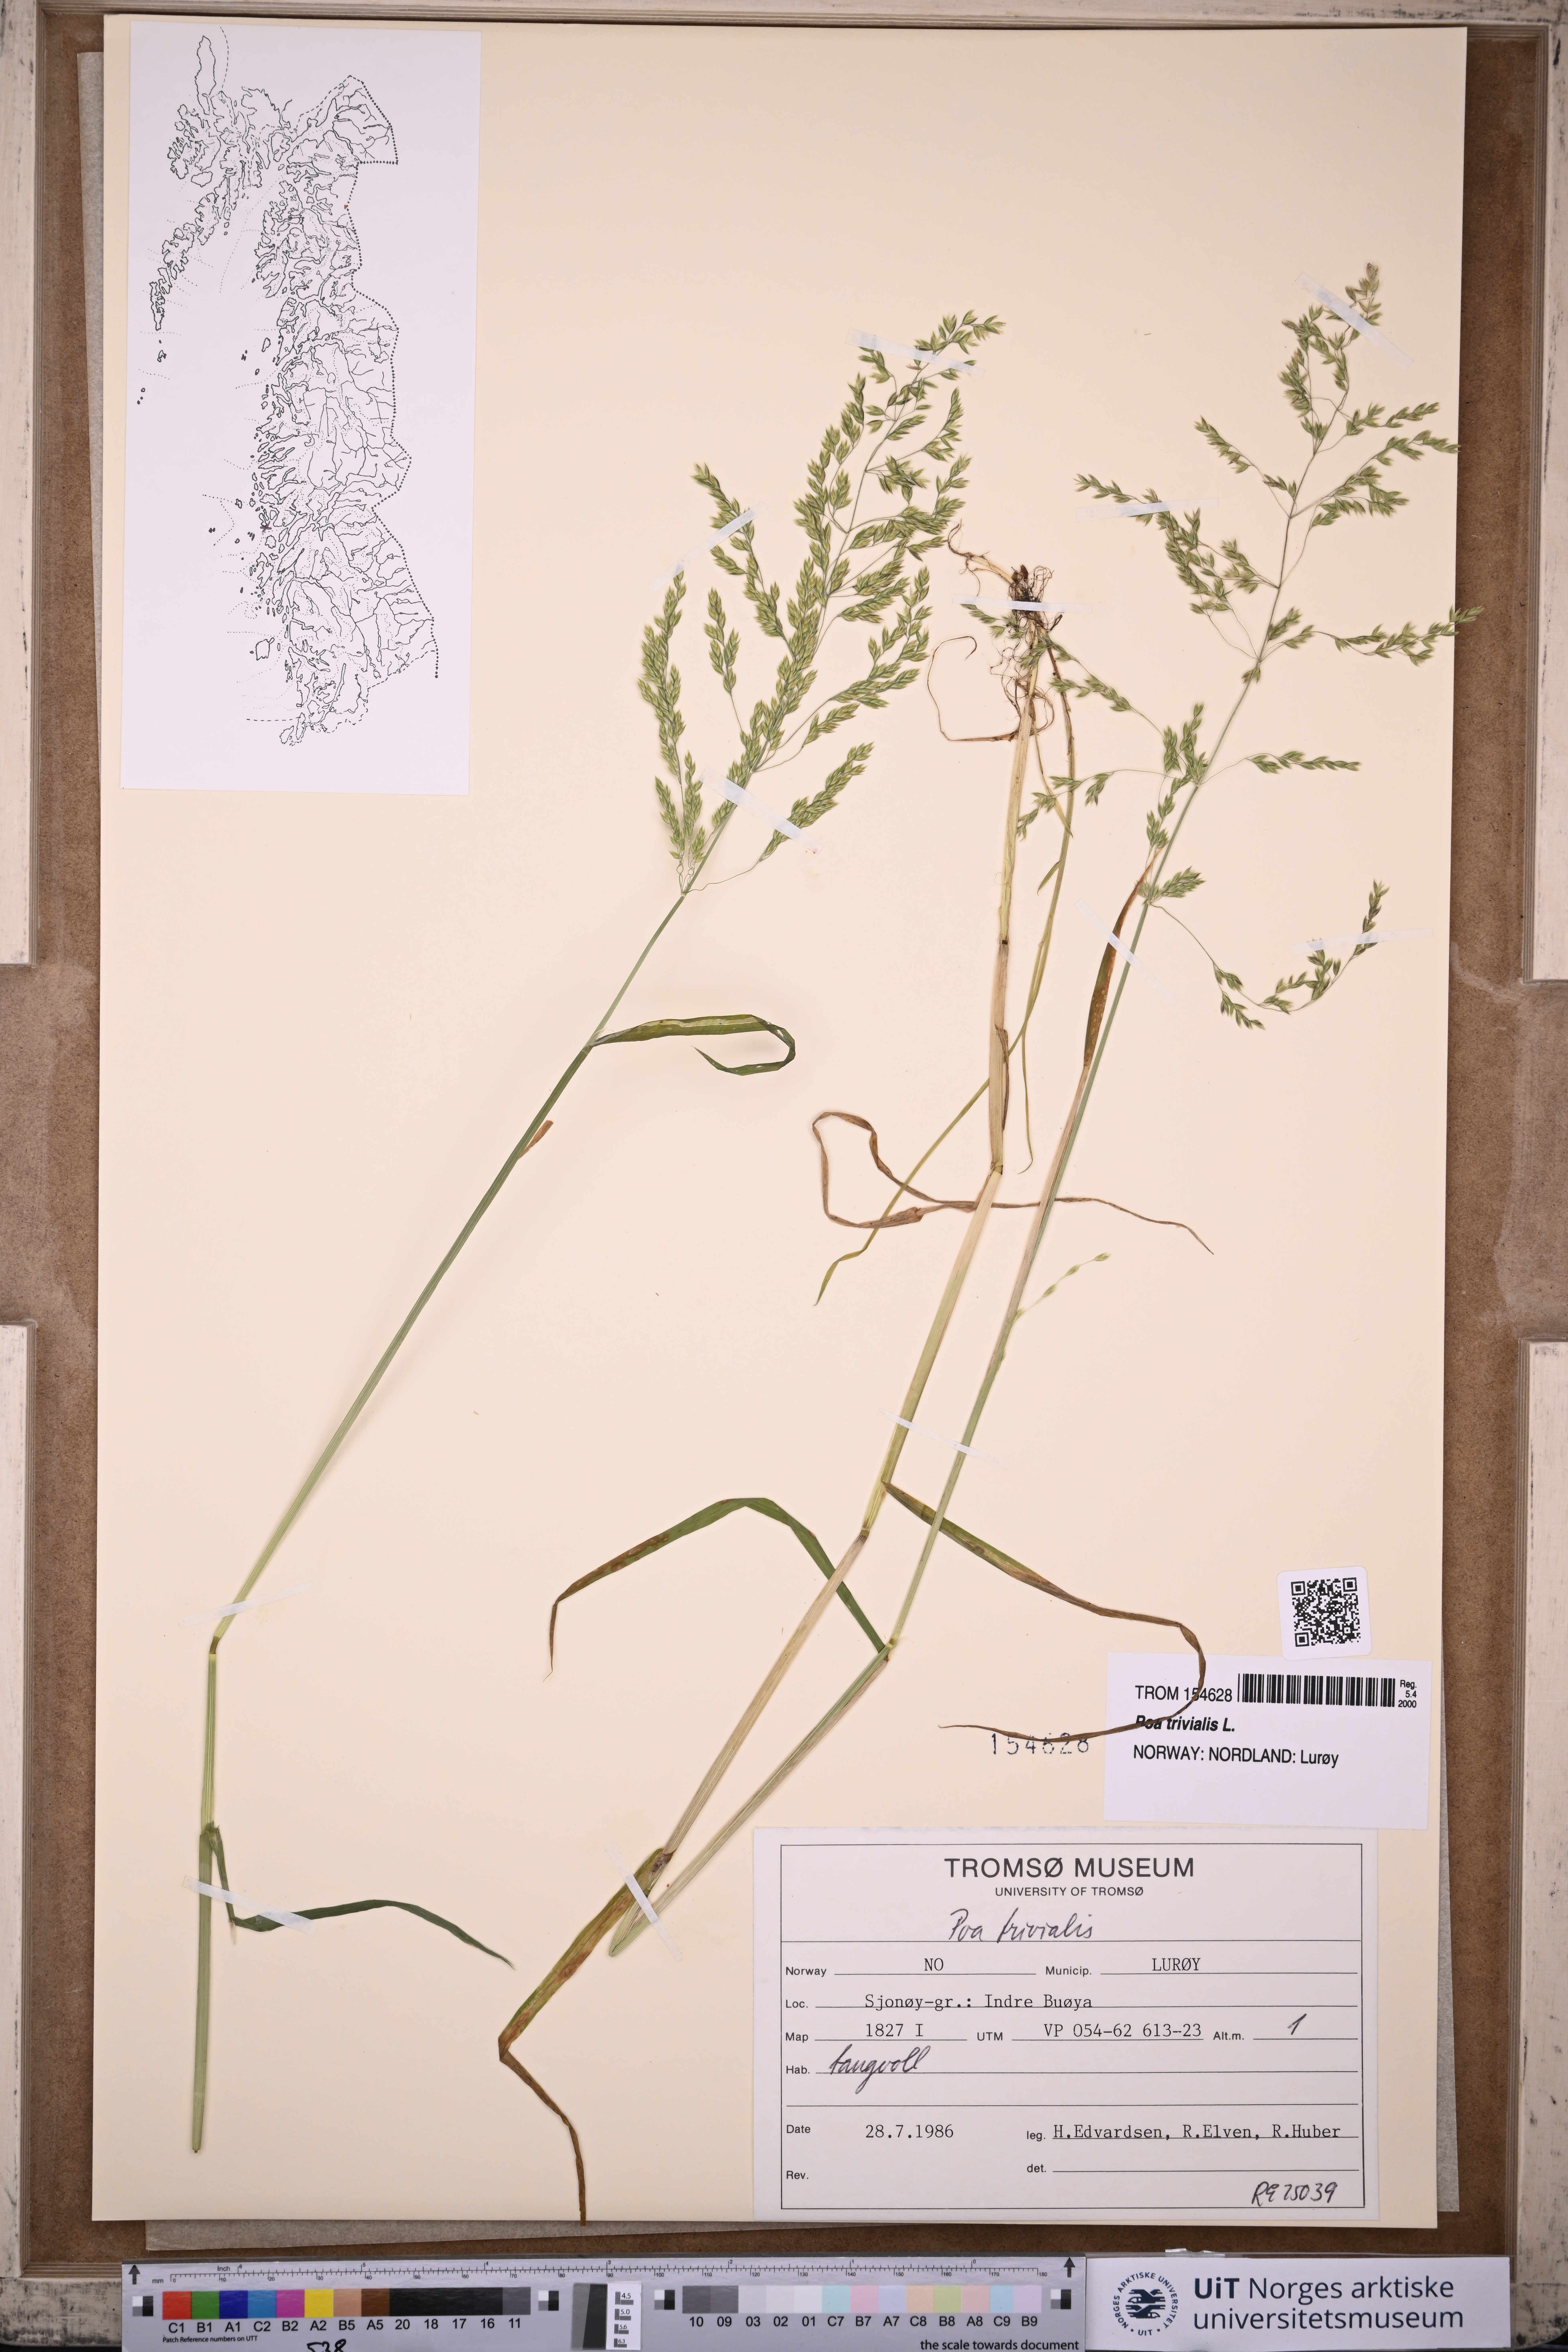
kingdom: Plantae
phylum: Tracheophyta
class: Liliopsida
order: Poales
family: Poaceae
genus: Poa
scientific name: Poa trivialis
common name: Rough bluegrass
